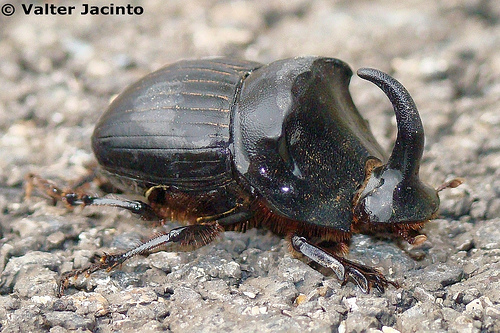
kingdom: Animalia
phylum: Arthropoda
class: Insecta
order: Coleoptera
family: Scarabaeidae
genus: Copris
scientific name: Copris hispanus
